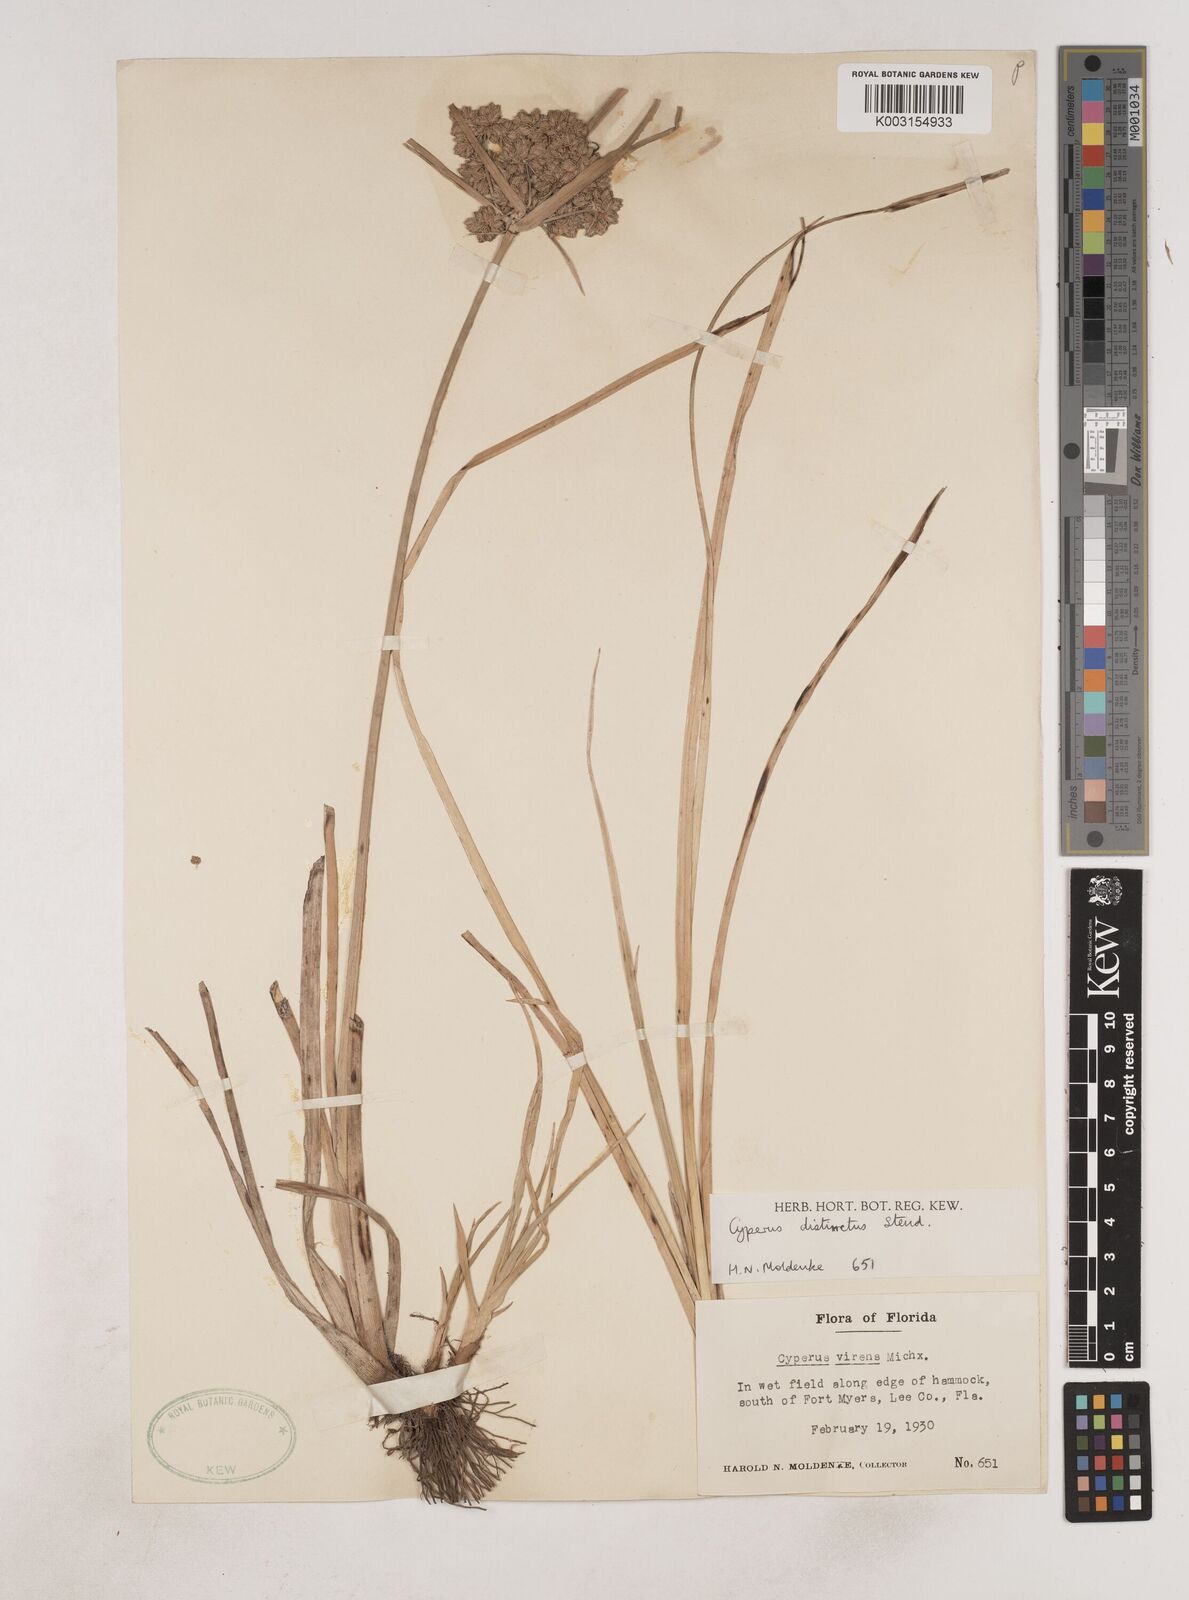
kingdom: Plantae
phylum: Tracheophyta
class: Liliopsida
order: Poales
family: Cyperaceae
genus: Cyperus
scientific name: Cyperus distinctus
